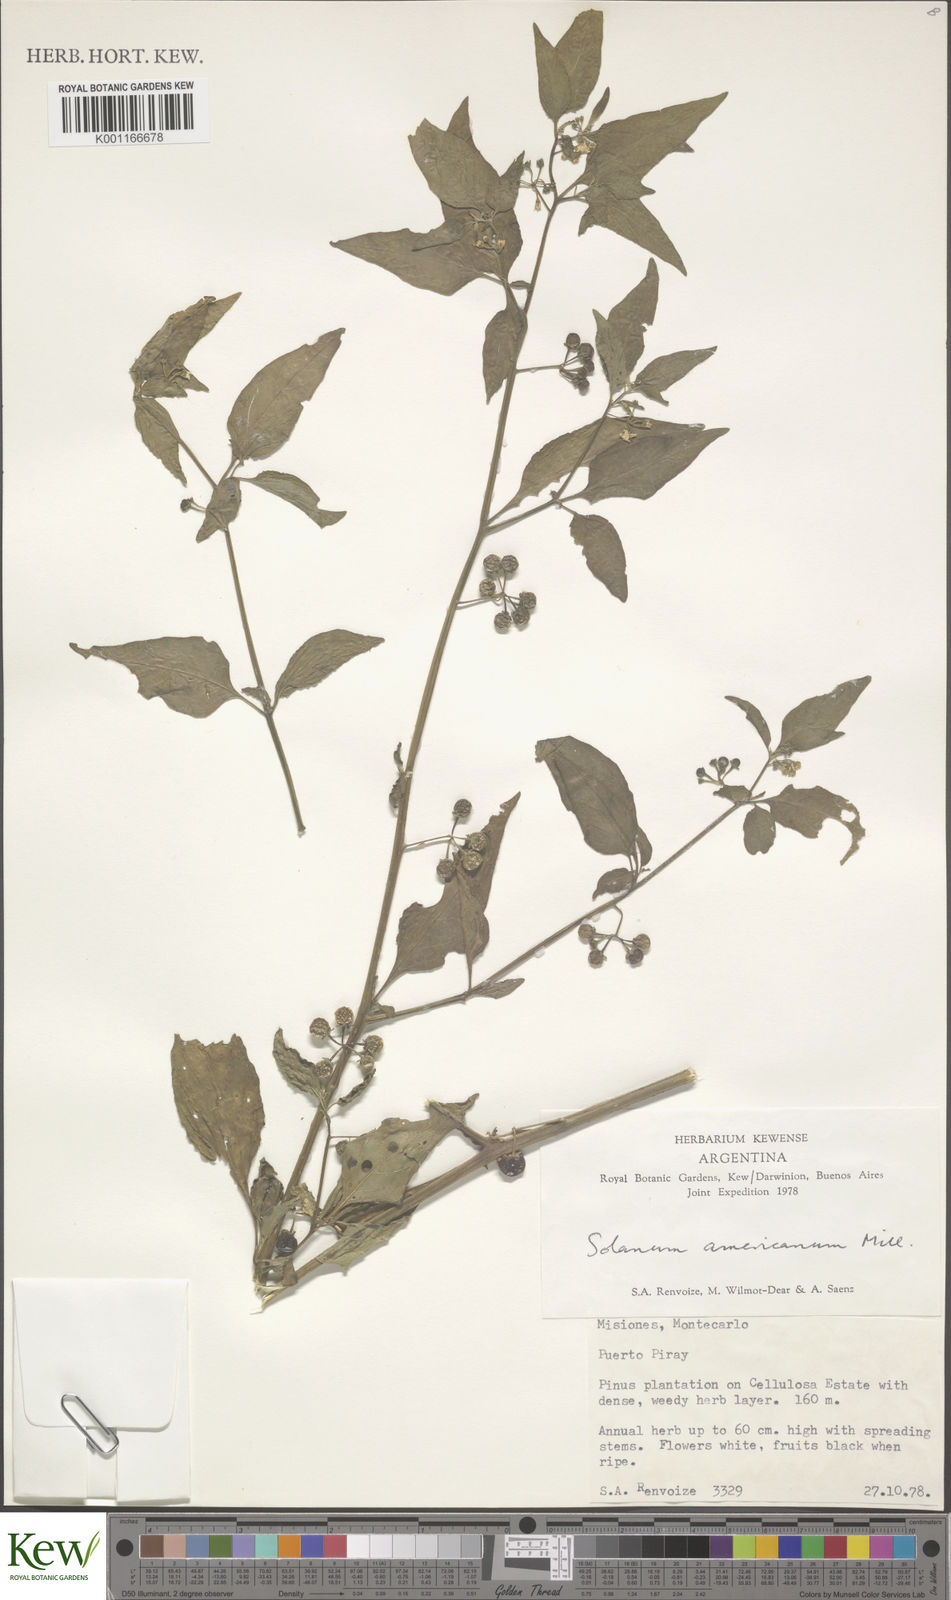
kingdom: Plantae
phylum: Tracheophyta
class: Magnoliopsida
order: Solanales
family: Solanaceae
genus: Solanum
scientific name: Solanum americanum
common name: American black nightshade
